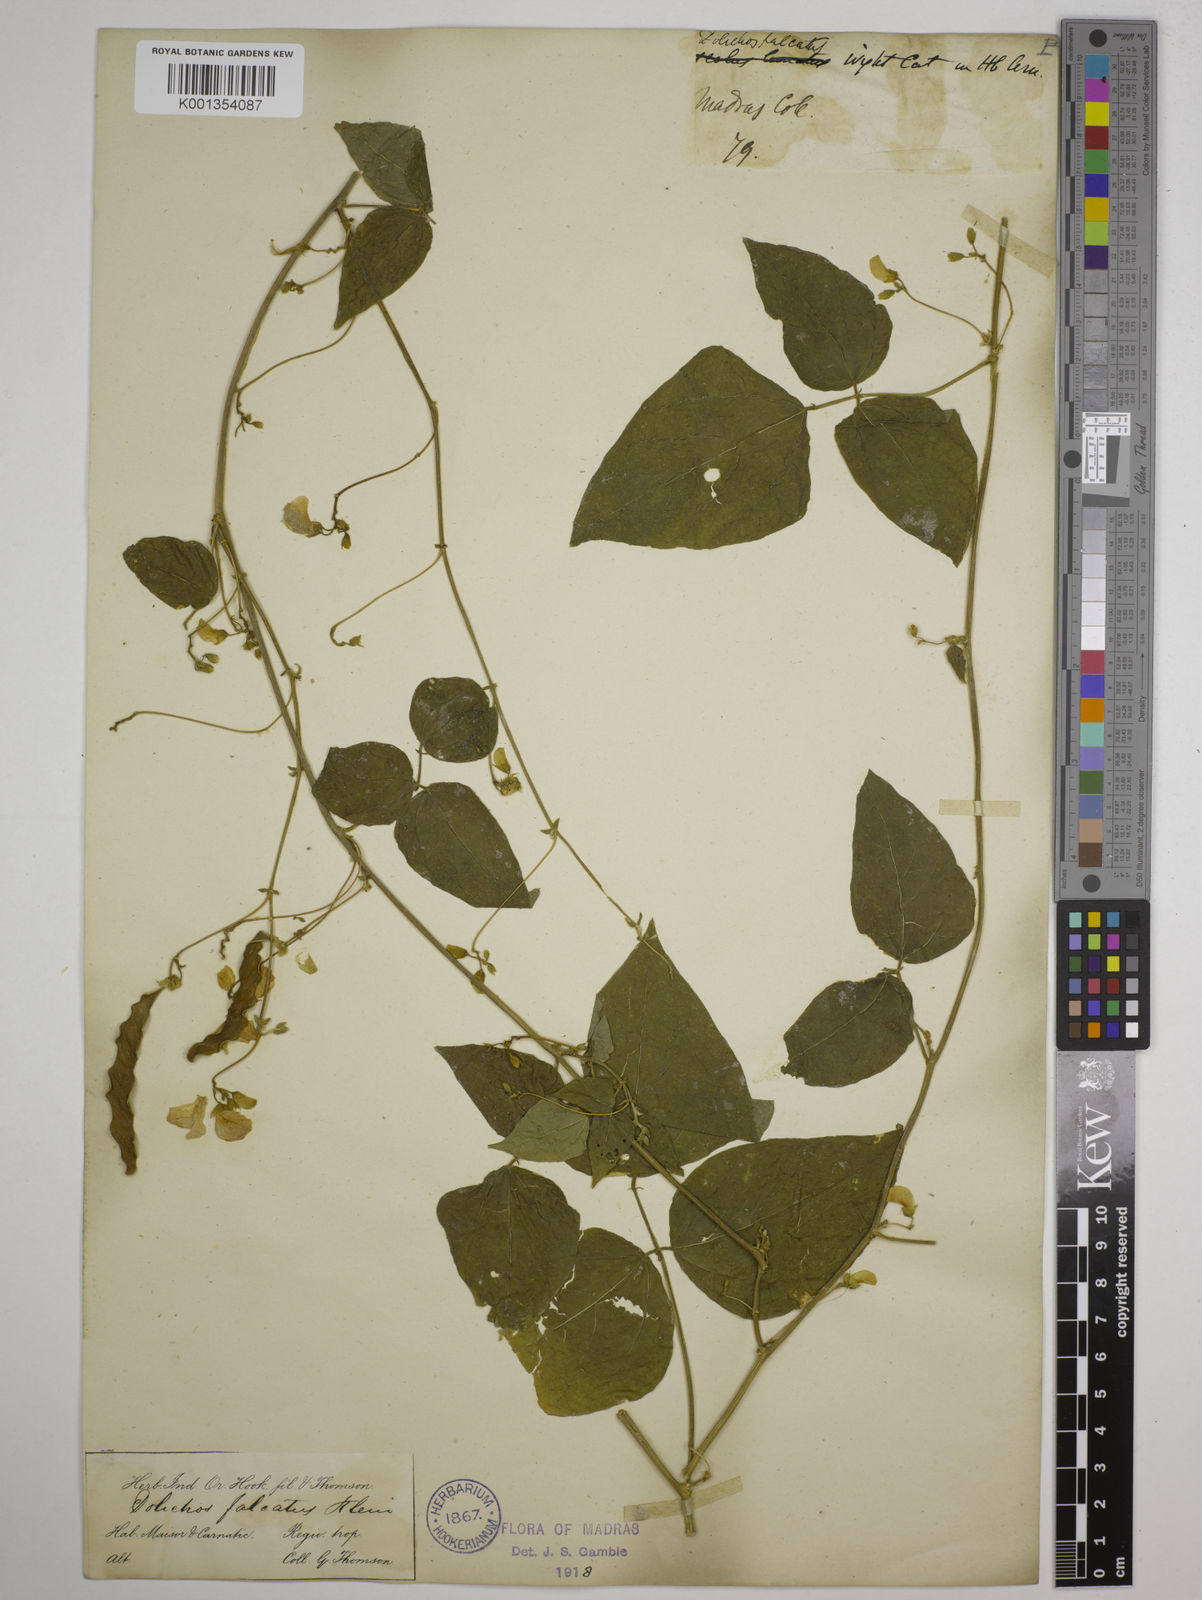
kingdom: Plantae
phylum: Tracheophyta
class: Magnoliopsida
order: Fabales
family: Fabaceae
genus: Dolichos
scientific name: Dolichos
